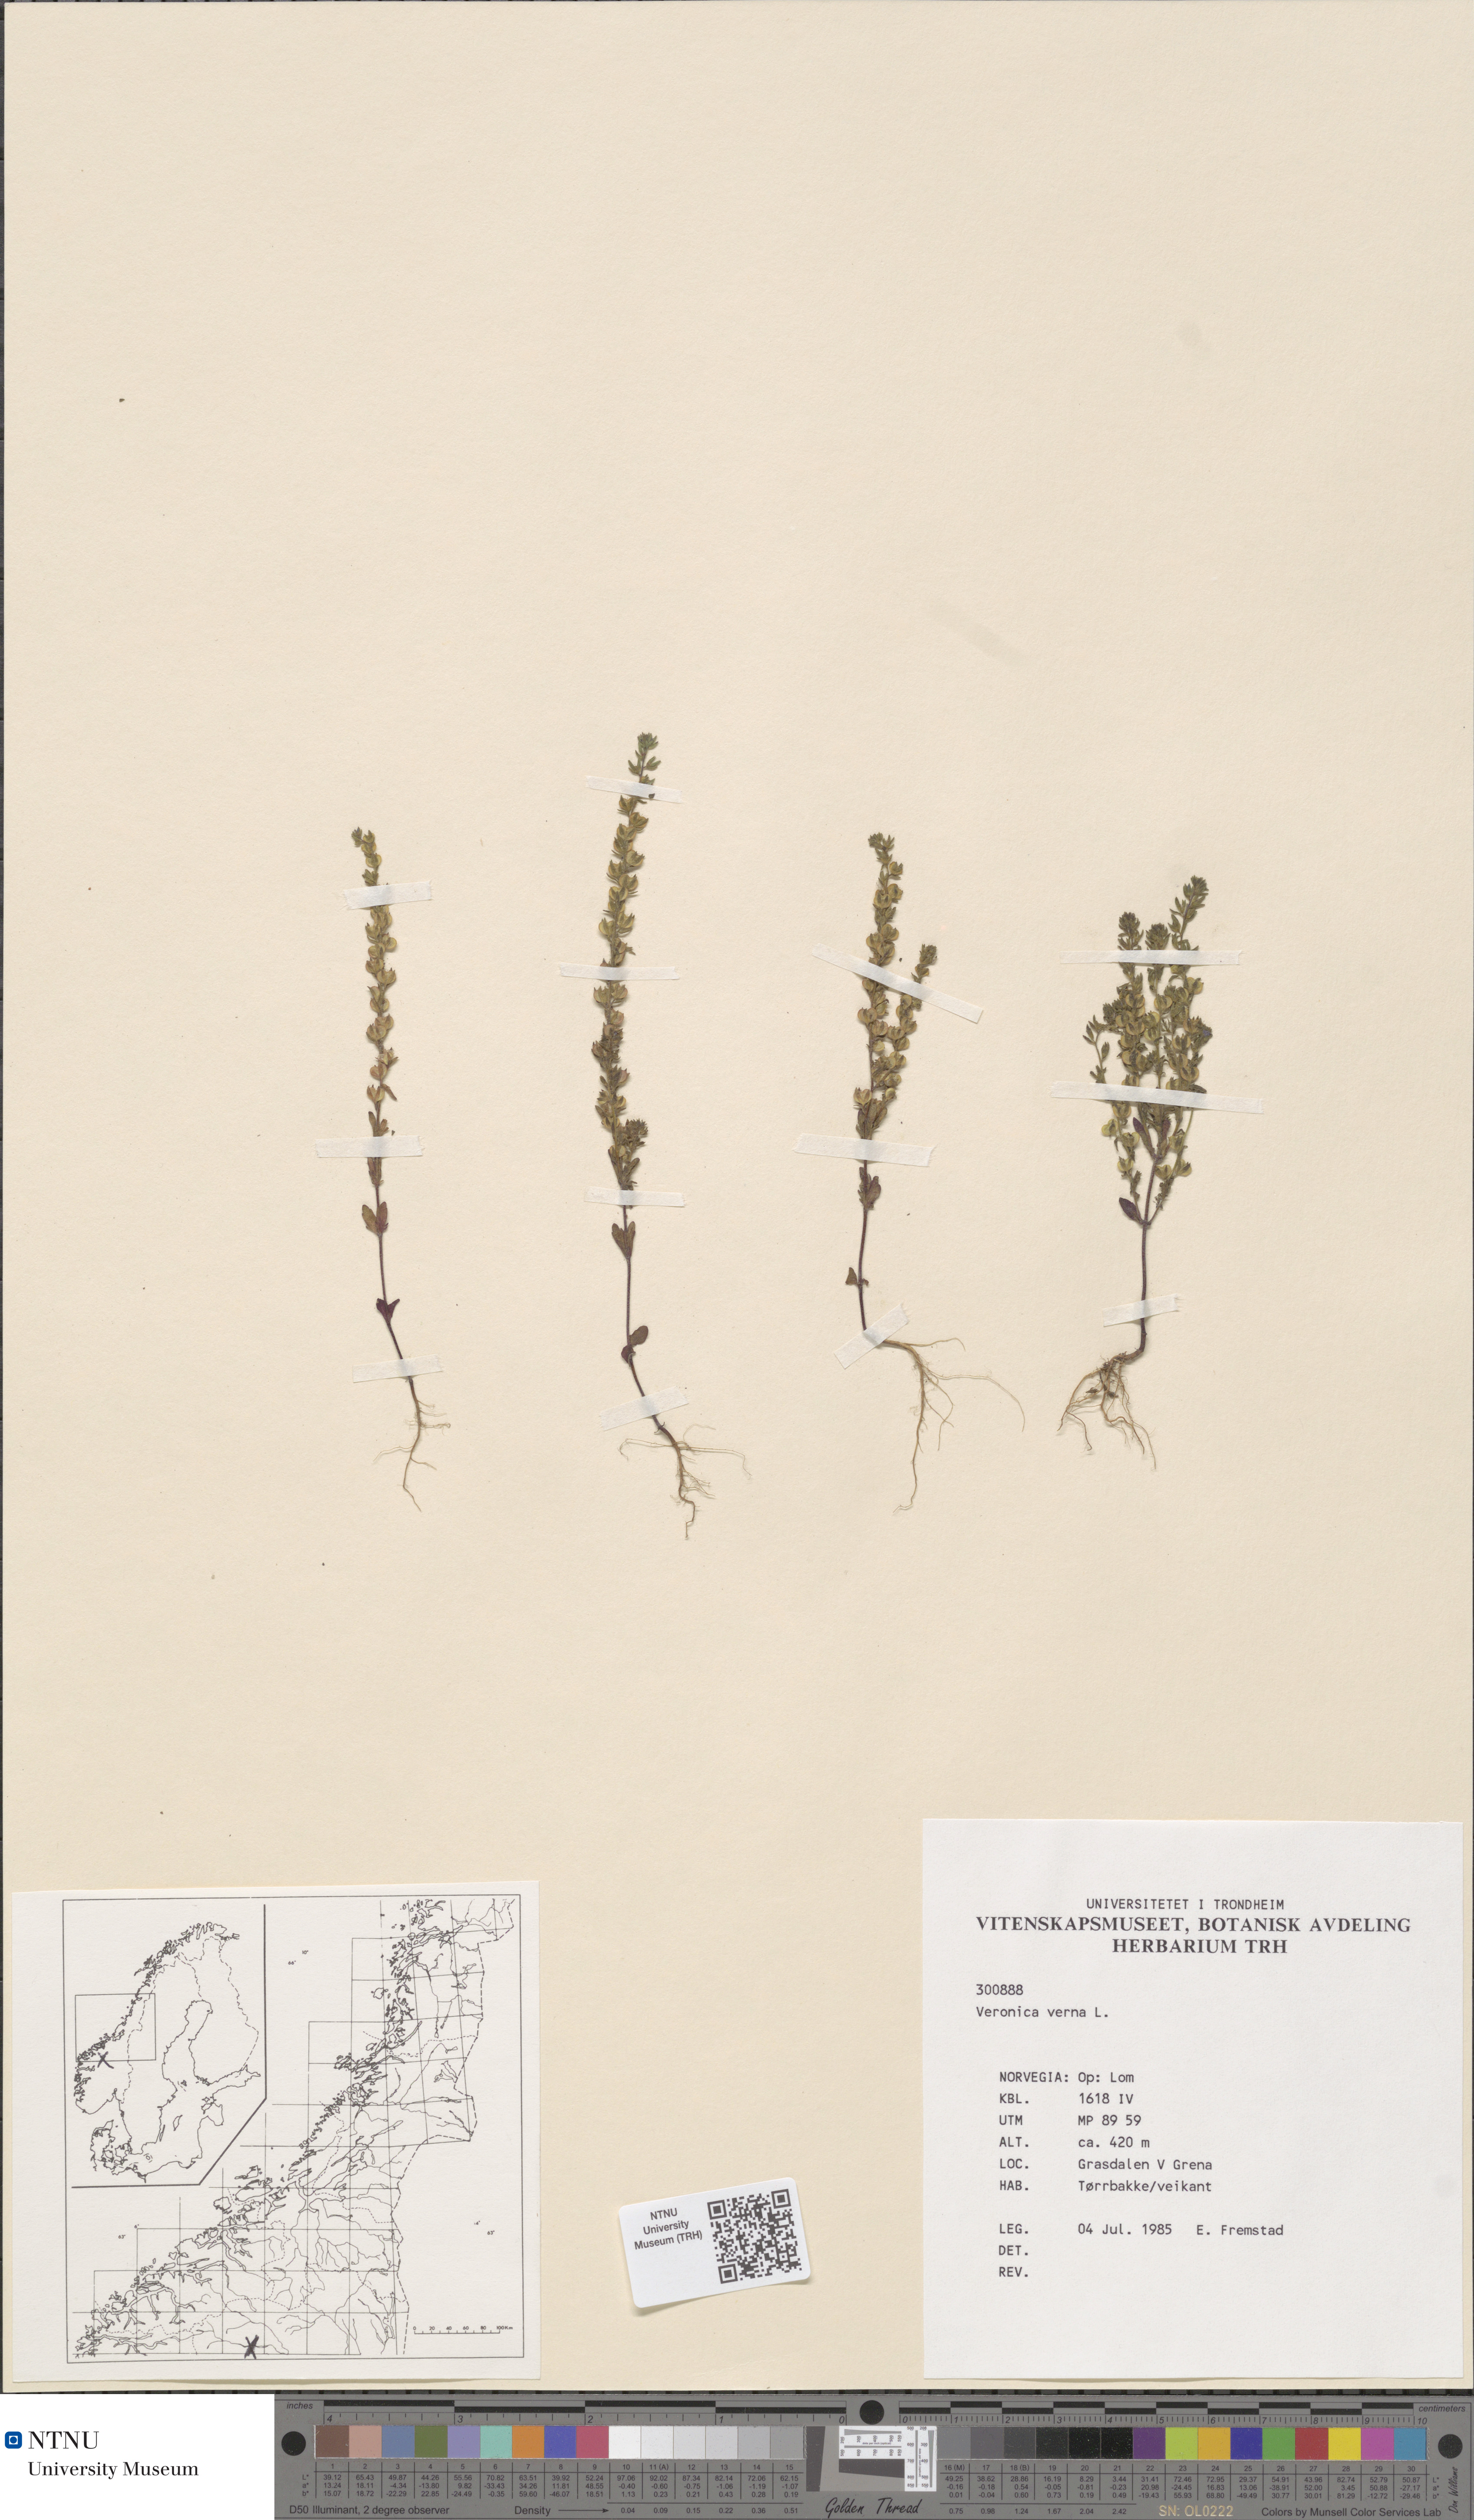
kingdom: Plantae
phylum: Tracheophyta
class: Magnoliopsida
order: Lamiales
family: Plantaginaceae
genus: Veronica
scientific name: Veronica verna
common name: Spring speedwell
